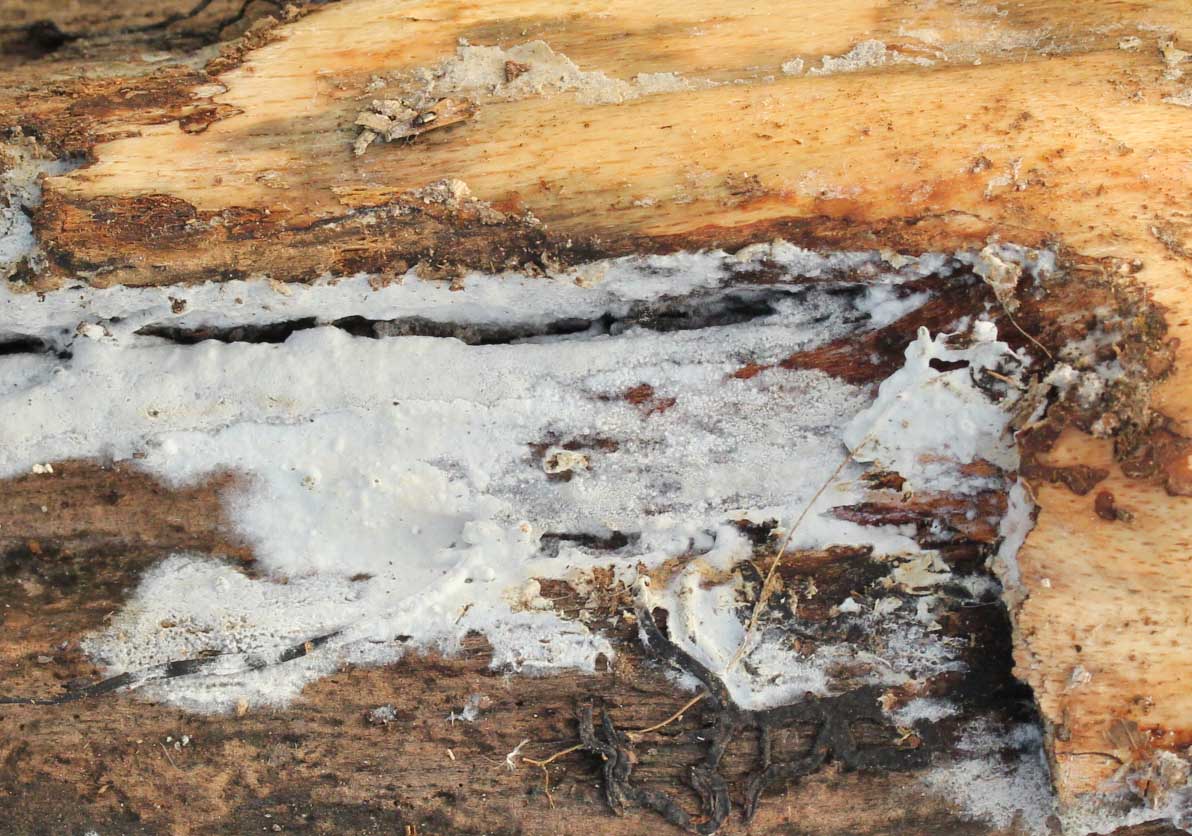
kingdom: Fungi
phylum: Basidiomycota
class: Agaricomycetes
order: Polyporales
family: Phanerochaetaceae
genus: Phanerochaete
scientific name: Phanerochaete sordida
